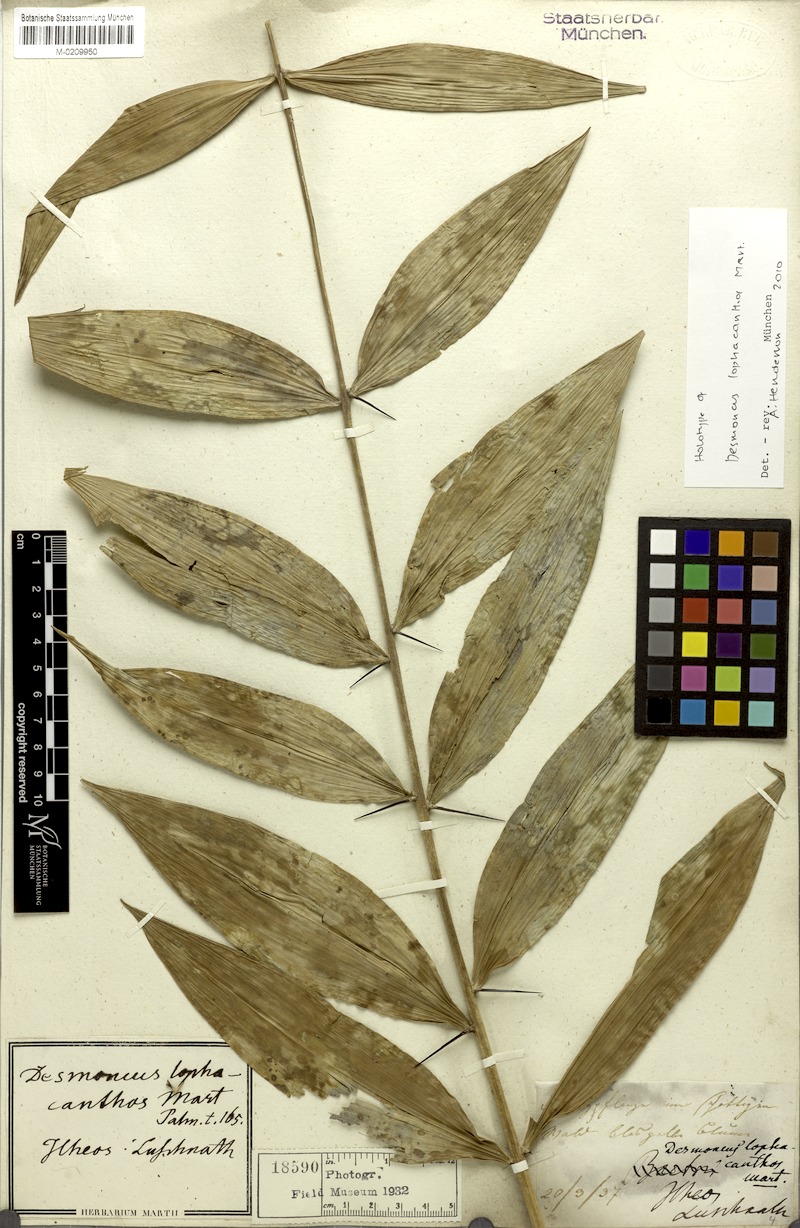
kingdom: Plantae
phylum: Tracheophyta
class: Liliopsida
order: Arecales
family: Arecaceae
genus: Desmoncus
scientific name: Desmoncus orthacanthos
